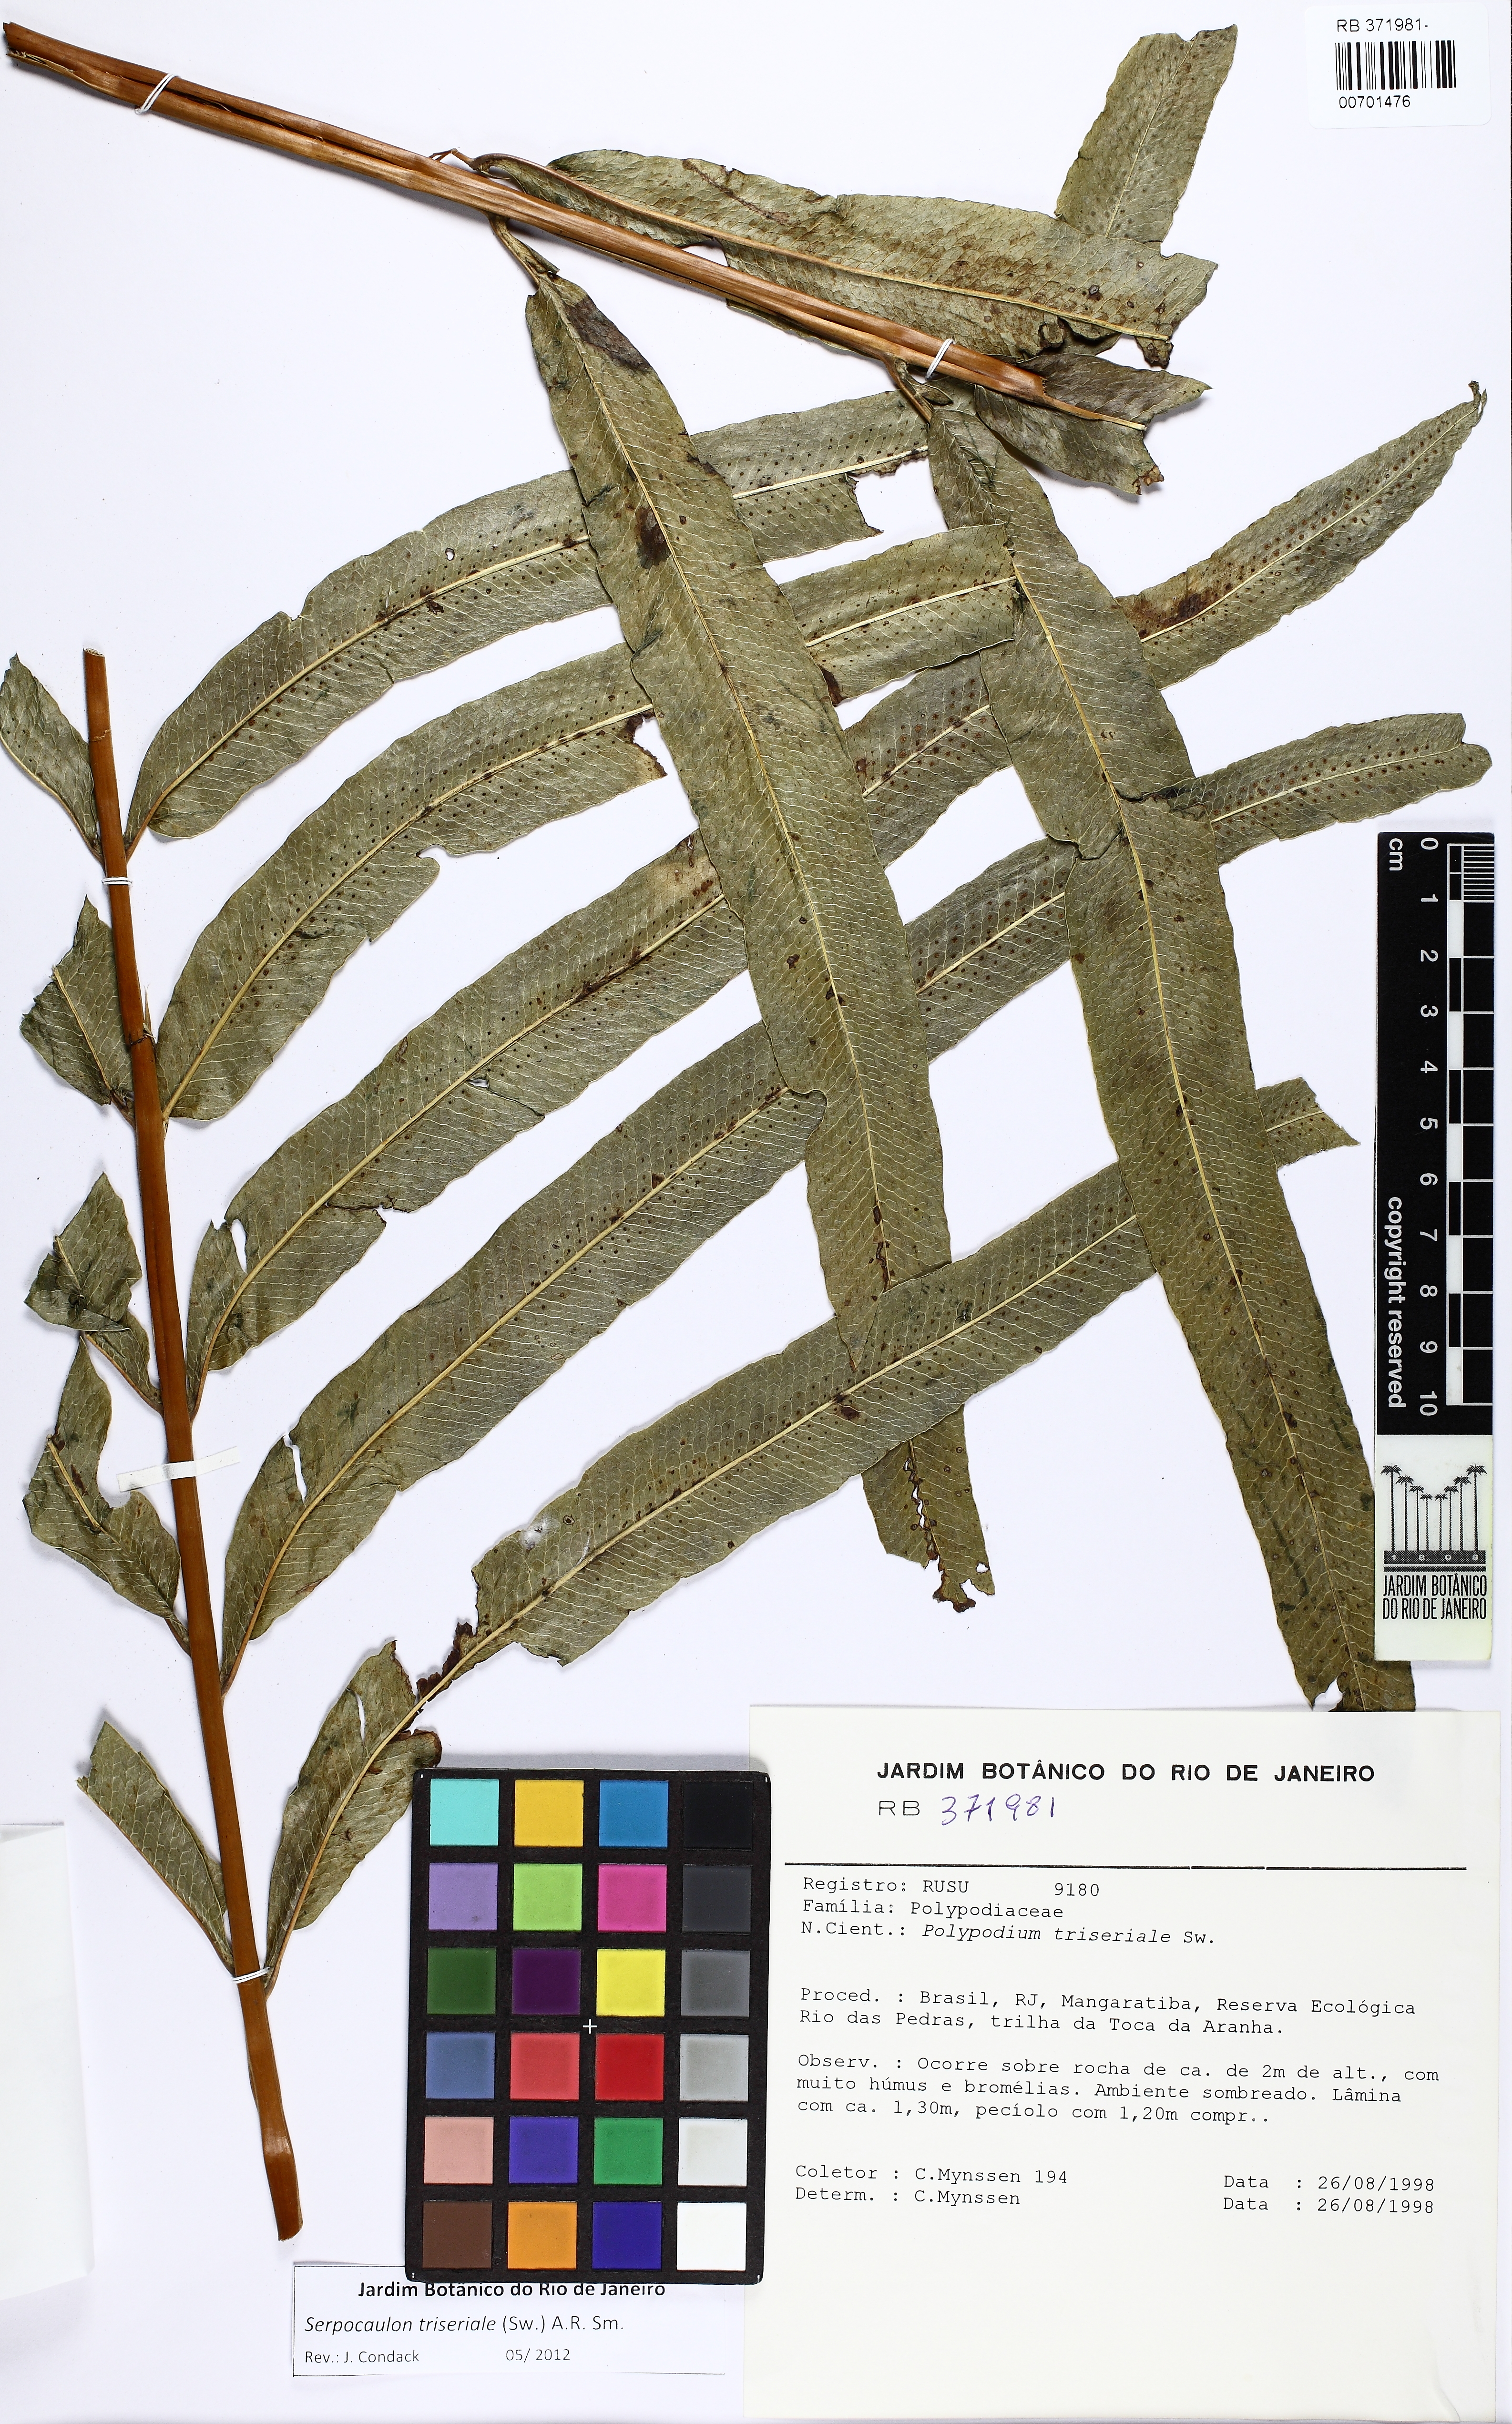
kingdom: Plantae
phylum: Tracheophyta
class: Polypodiopsida
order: Polypodiales
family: Polypodiaceae
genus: Serpocaulon
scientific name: Serpocaulon triseriale
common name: Angle-vein fern
